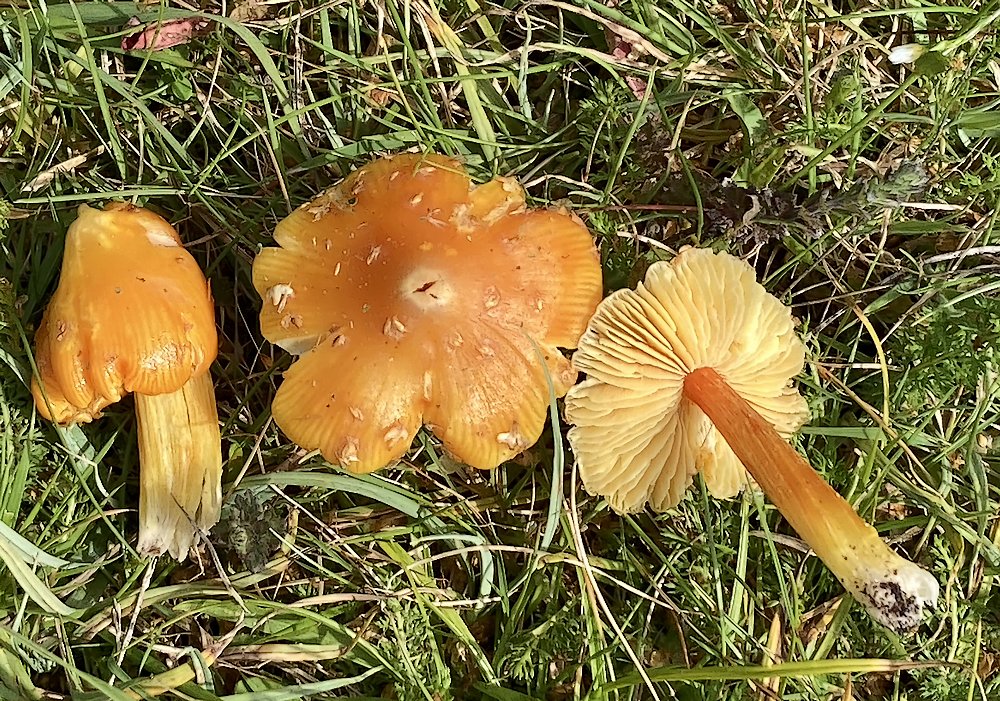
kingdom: Fungi
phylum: Basidiomycota
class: Agaricomycetes
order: Agaricales
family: Hygrophoraceae
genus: Hygrocybe
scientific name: Hygrocybe
